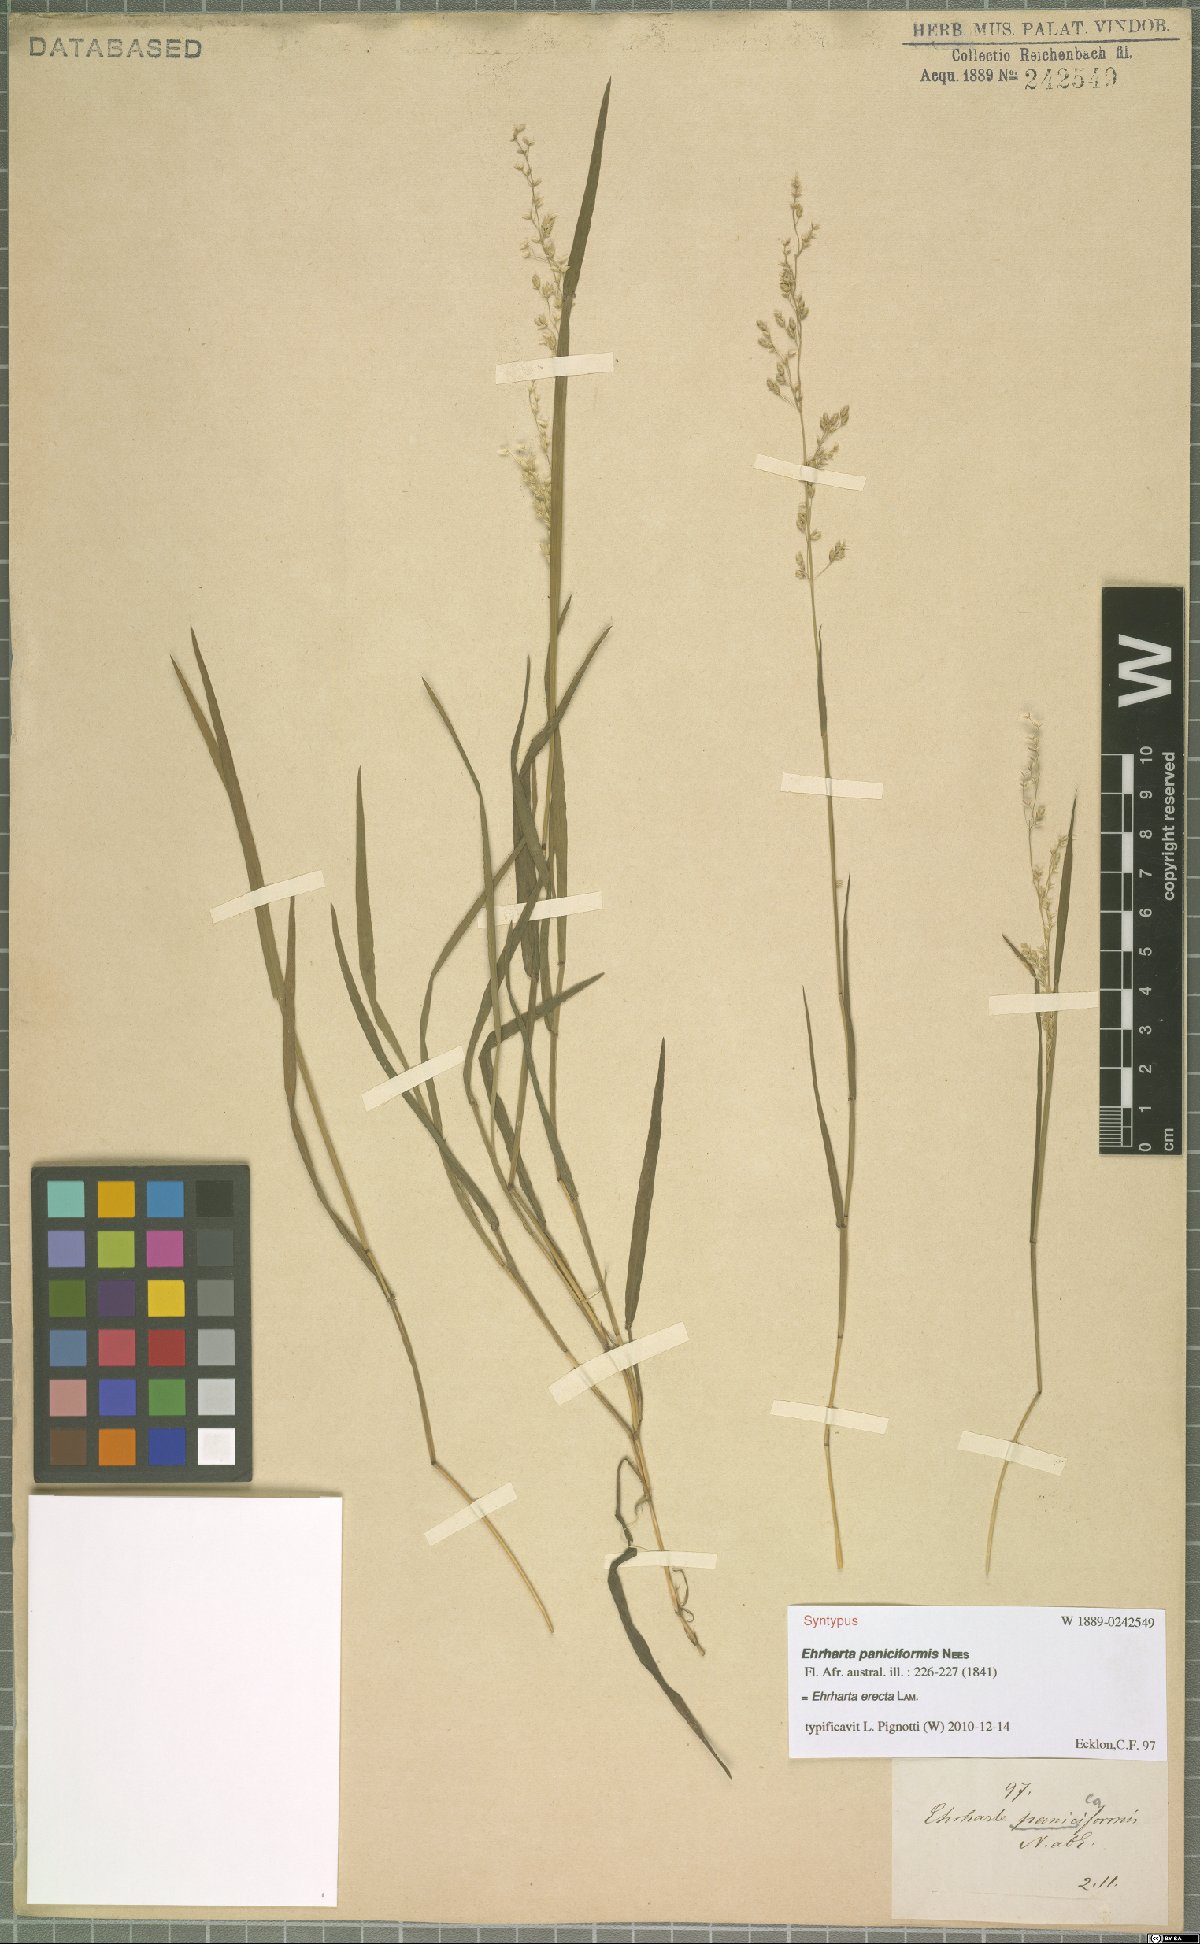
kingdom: Plantae
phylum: Tracheophyta
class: Liliopsida
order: Poales
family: Poaceae
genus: Ehrharta
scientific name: Ehrharta erecta
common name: Panic veldtgrass
